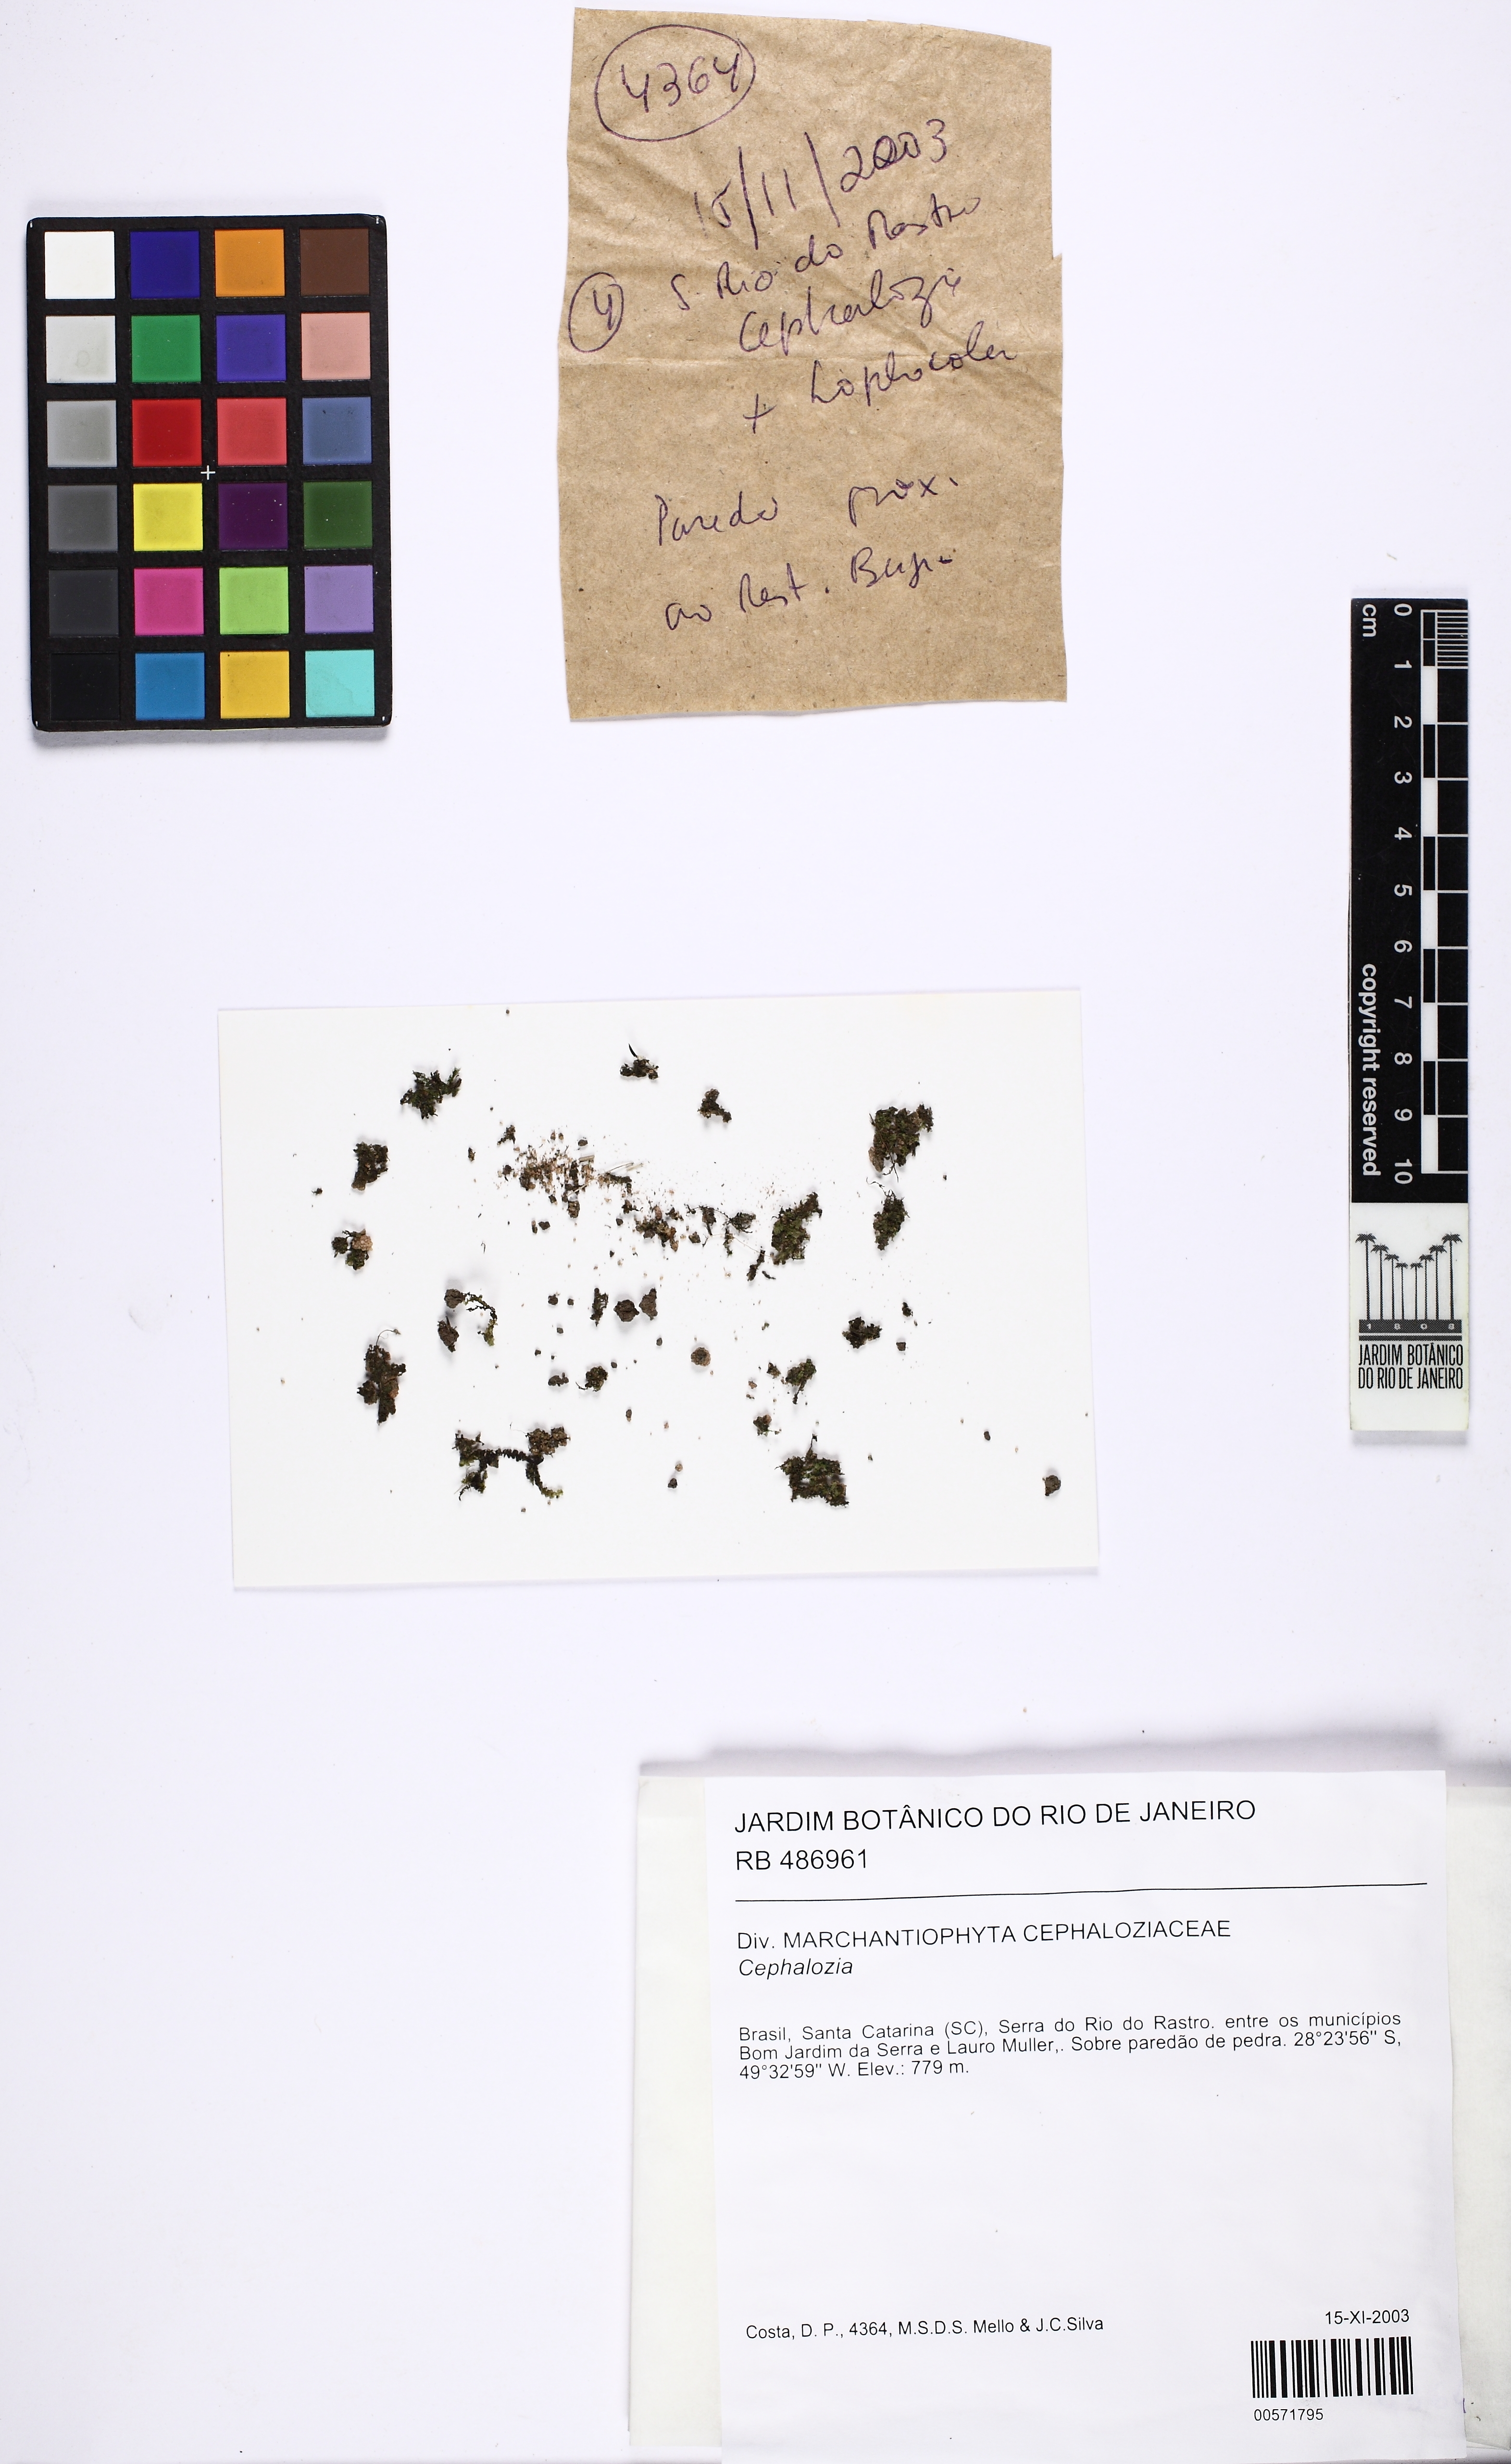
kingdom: Plantae
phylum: Marchantiophyta
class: Jungermanniopsida
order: Jungermanniales
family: Cephaloziaceae
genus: Cephalozia
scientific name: Cephalozia
